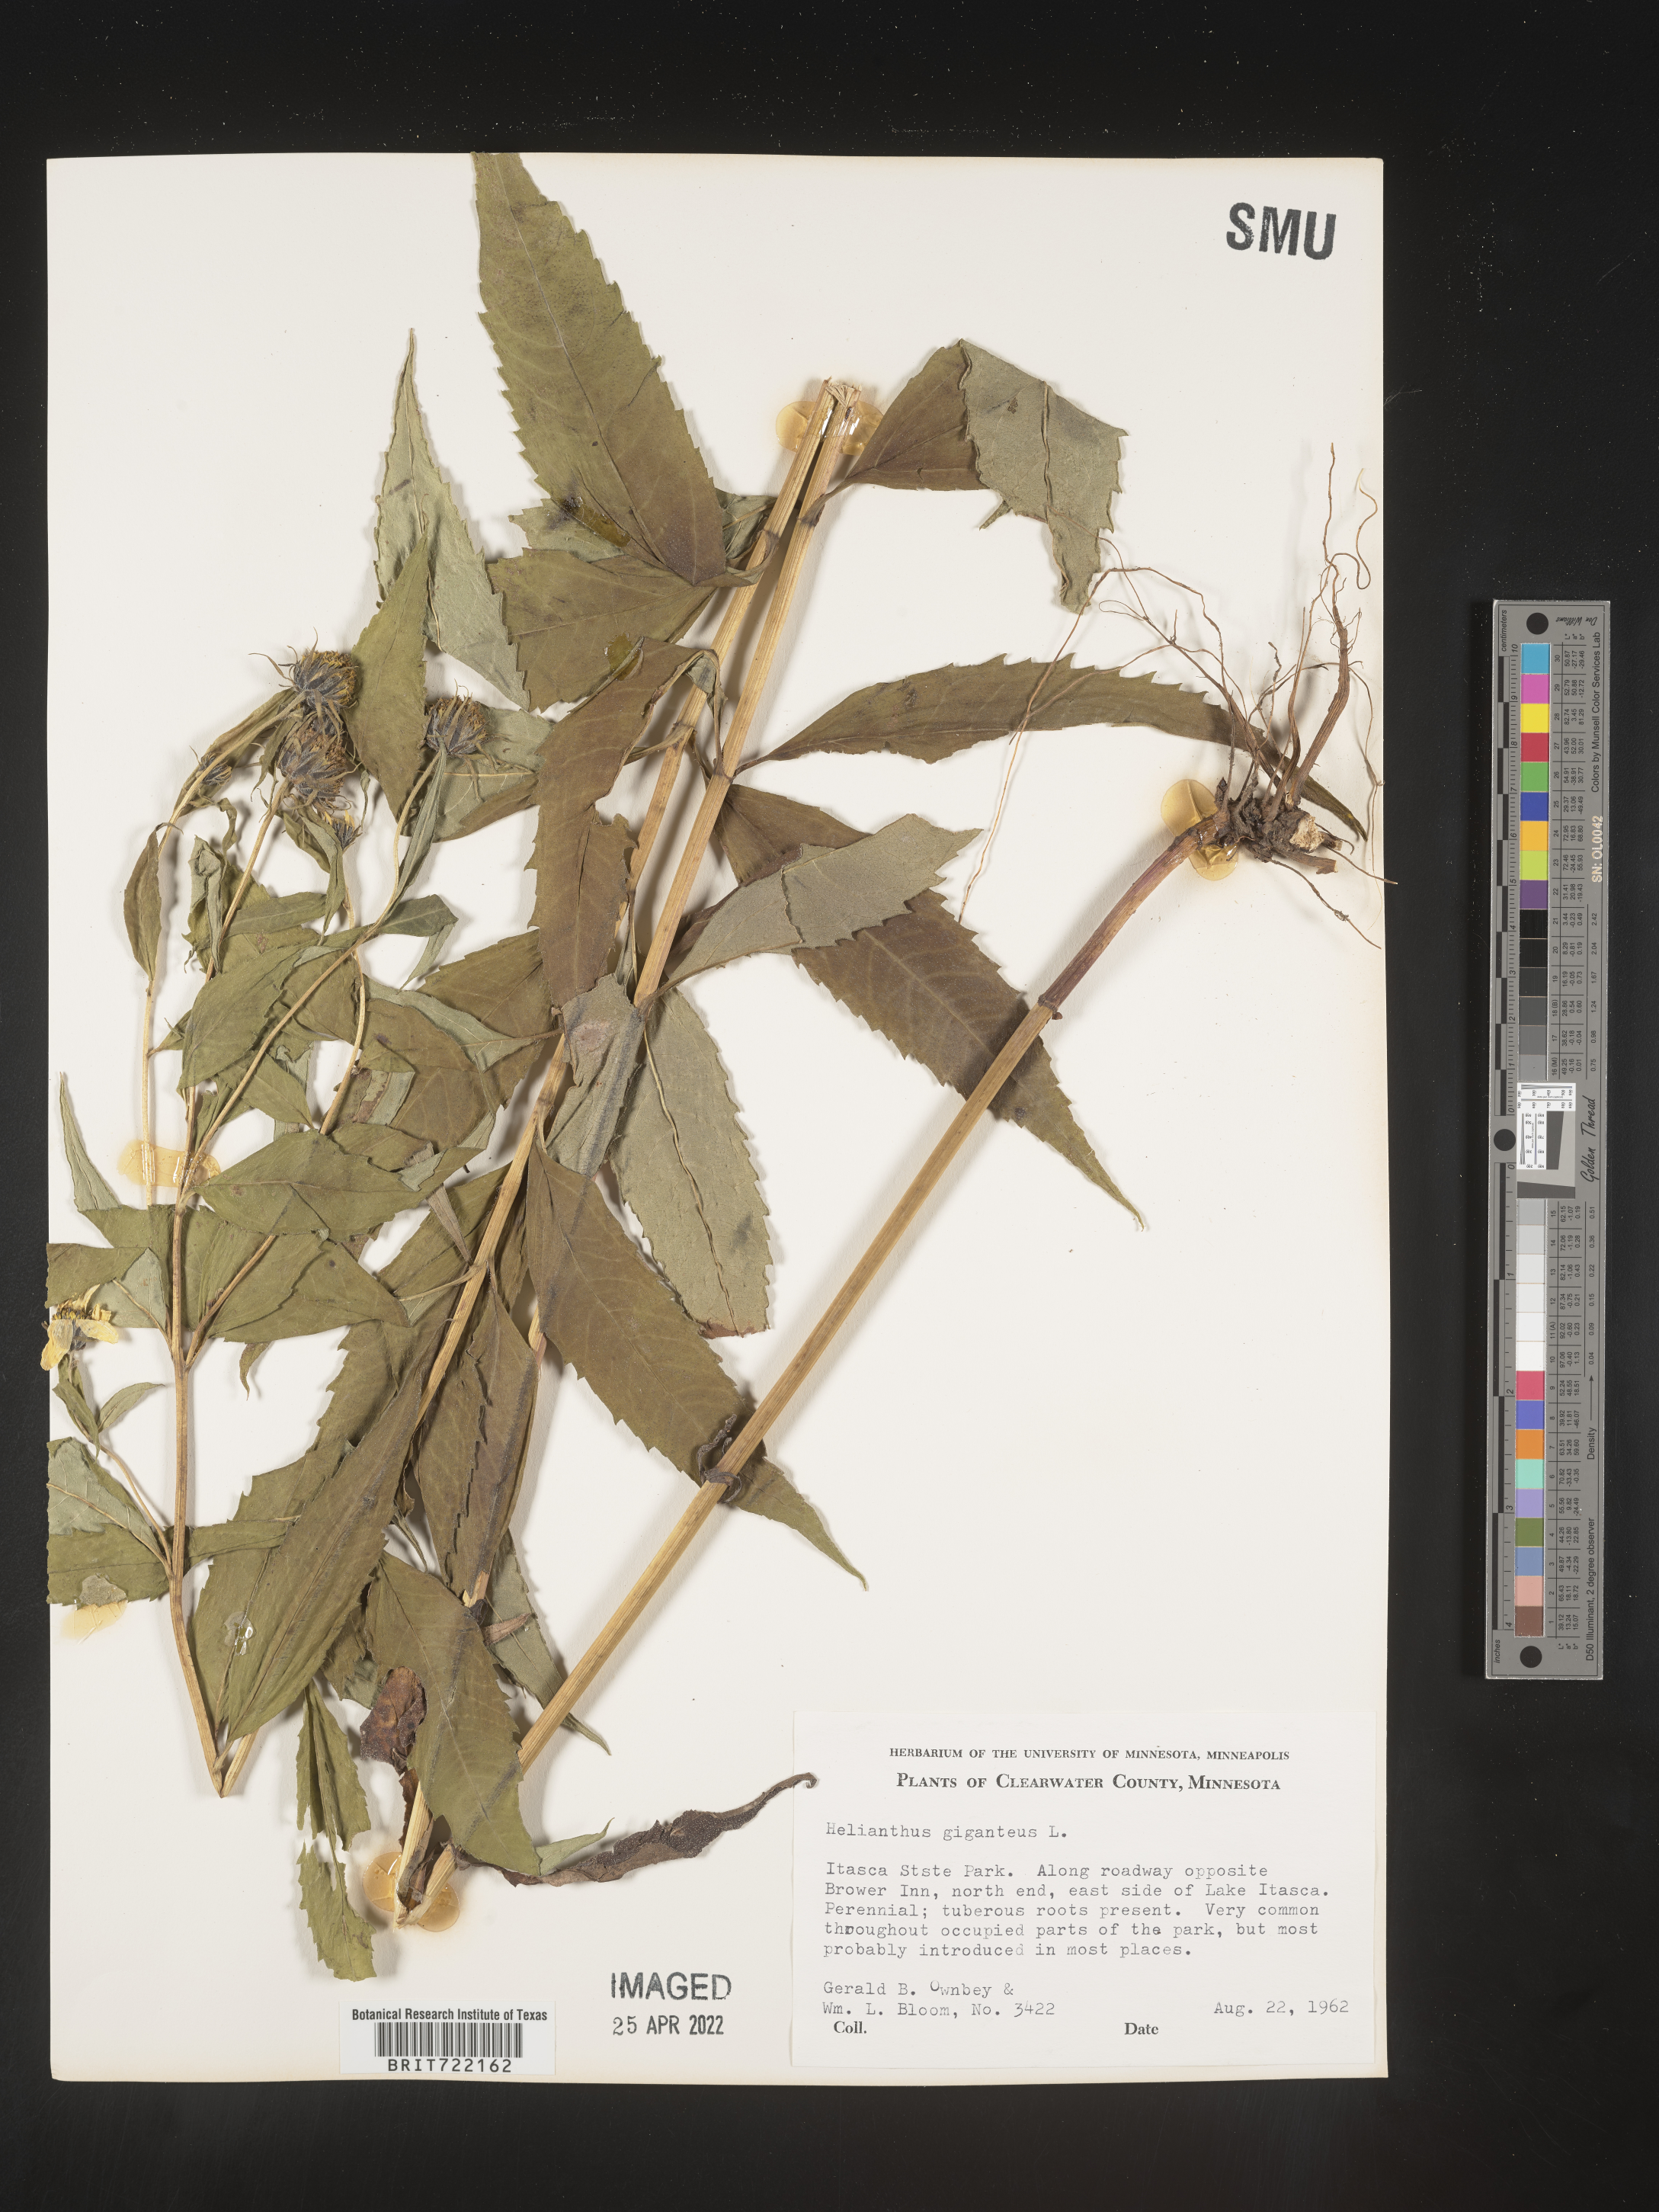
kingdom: Plantae
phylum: Tracheophyta
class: Magnoliopsida
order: Asterales
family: Asteraceae
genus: Helianthus
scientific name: Helianthus giganteus
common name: Giant sunflower
